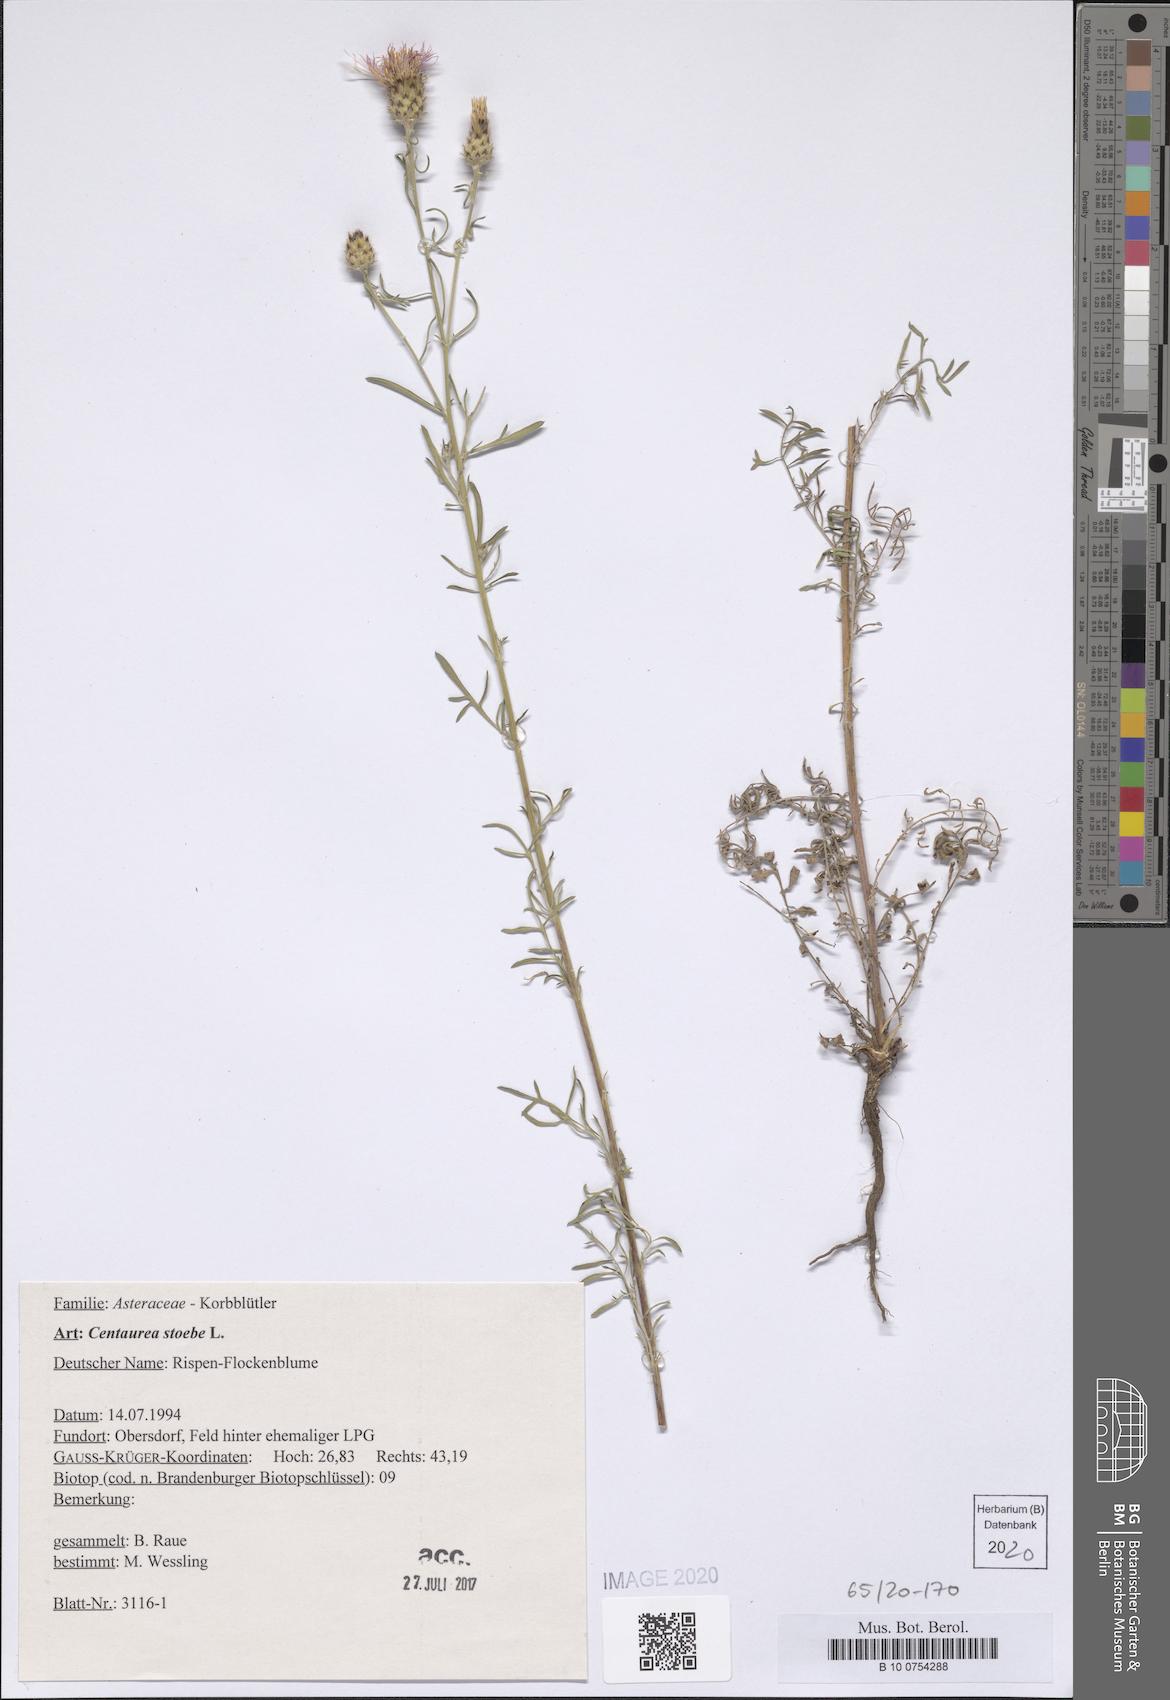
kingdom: Plantae
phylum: Tracheophyta
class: Magnoliopsida
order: Asterales
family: Asteraceae
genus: Centaurea
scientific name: Centaurea stoebe
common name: Spotted knapweed
